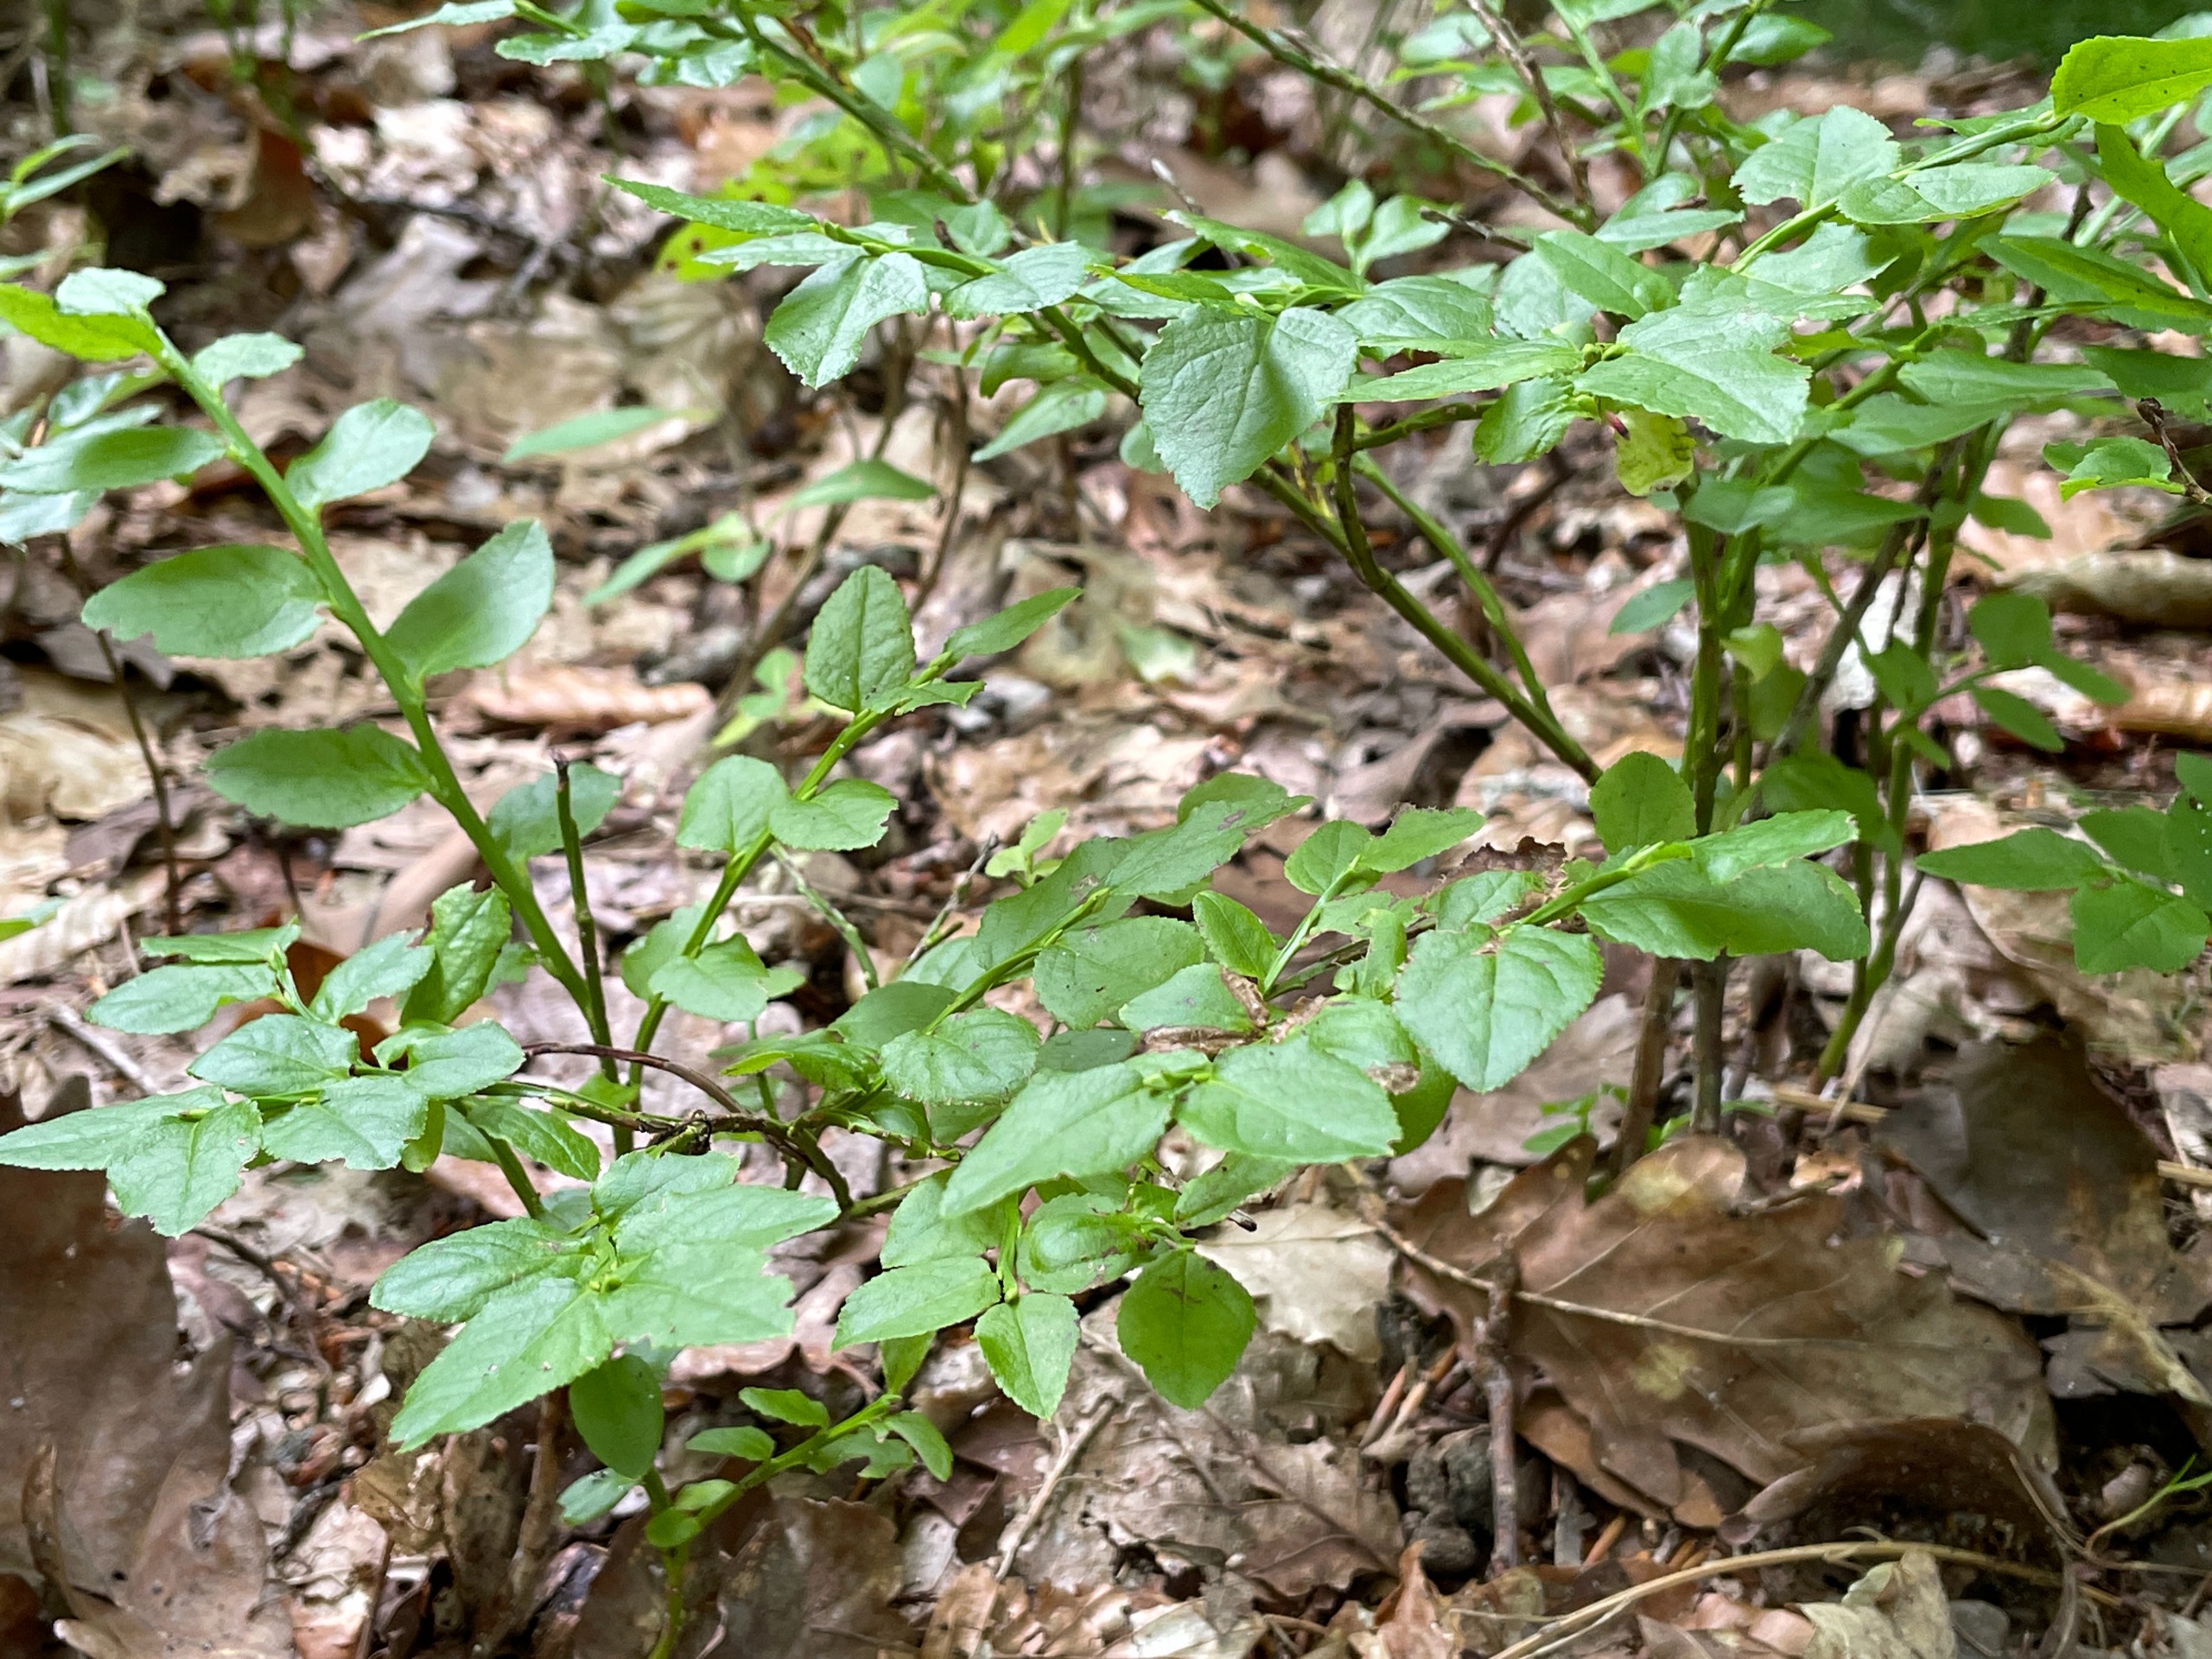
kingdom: Plantae
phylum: Tracheophyta
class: Magnoliopsida
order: Ericales
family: Ericaceae
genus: Vaccinium
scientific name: Vaccinium myrtillus
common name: Blåbær
